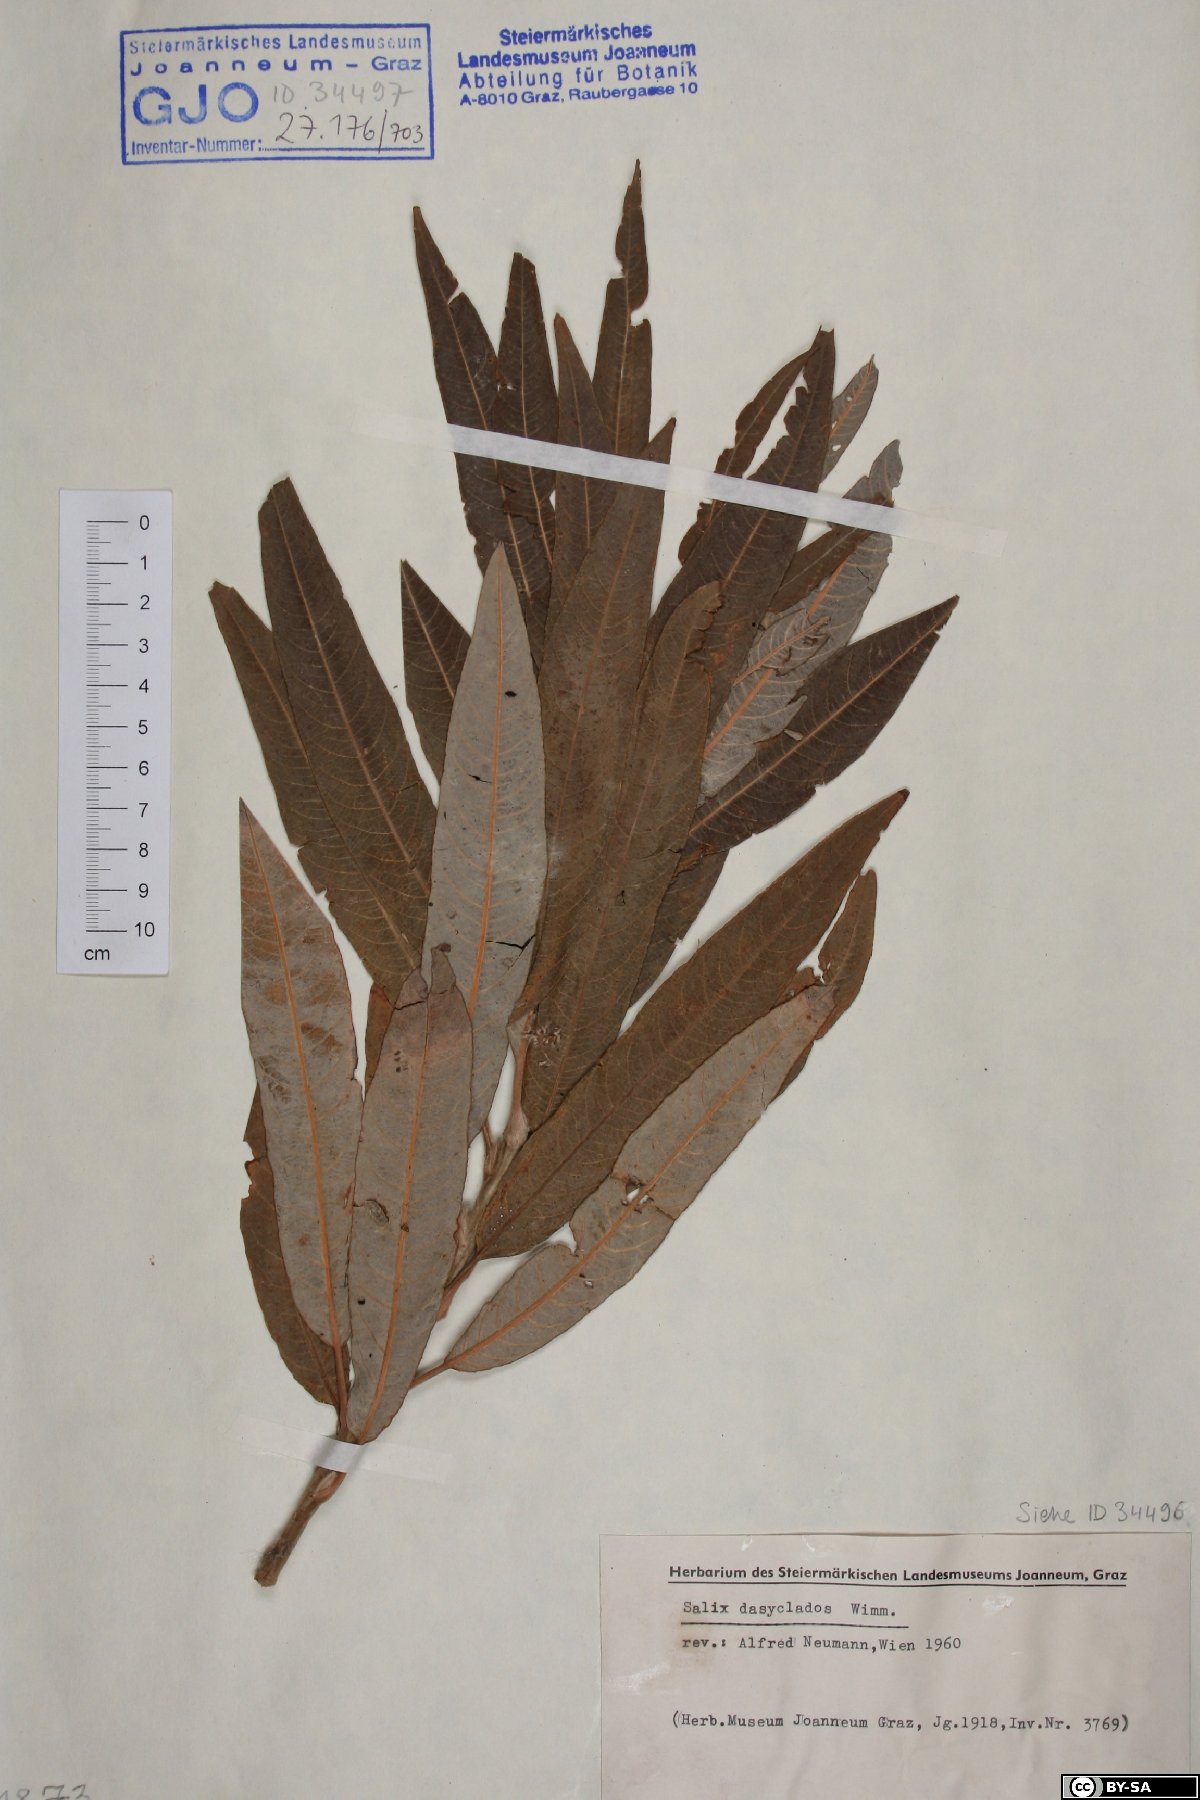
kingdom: Plantae
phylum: Tracheophyta
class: Magnoliopsida
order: Malpighiales
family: Salicaceae
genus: Salix
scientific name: Salix gmelinii
